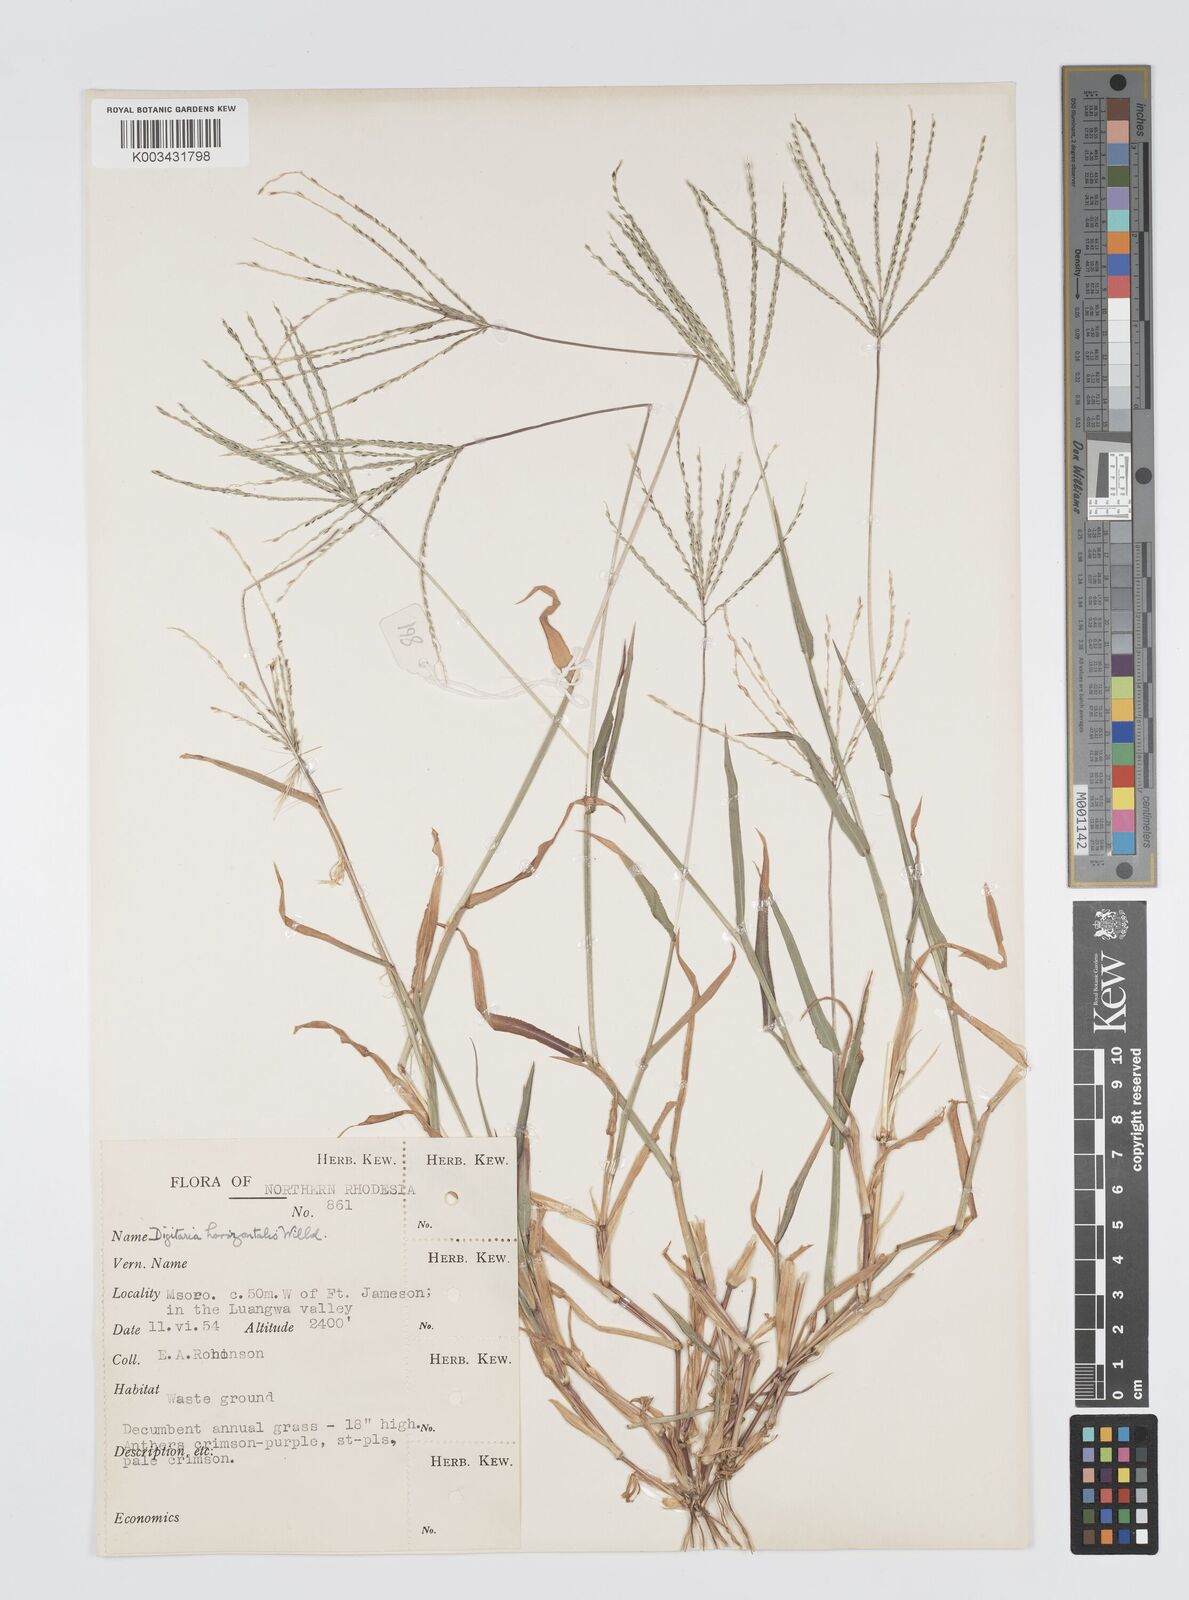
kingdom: Plantae
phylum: Tracheophyta
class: Liliopsida
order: Poales
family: Poaceae
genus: Digitaria
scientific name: Digitaria nuda
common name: Naked crabgrass
